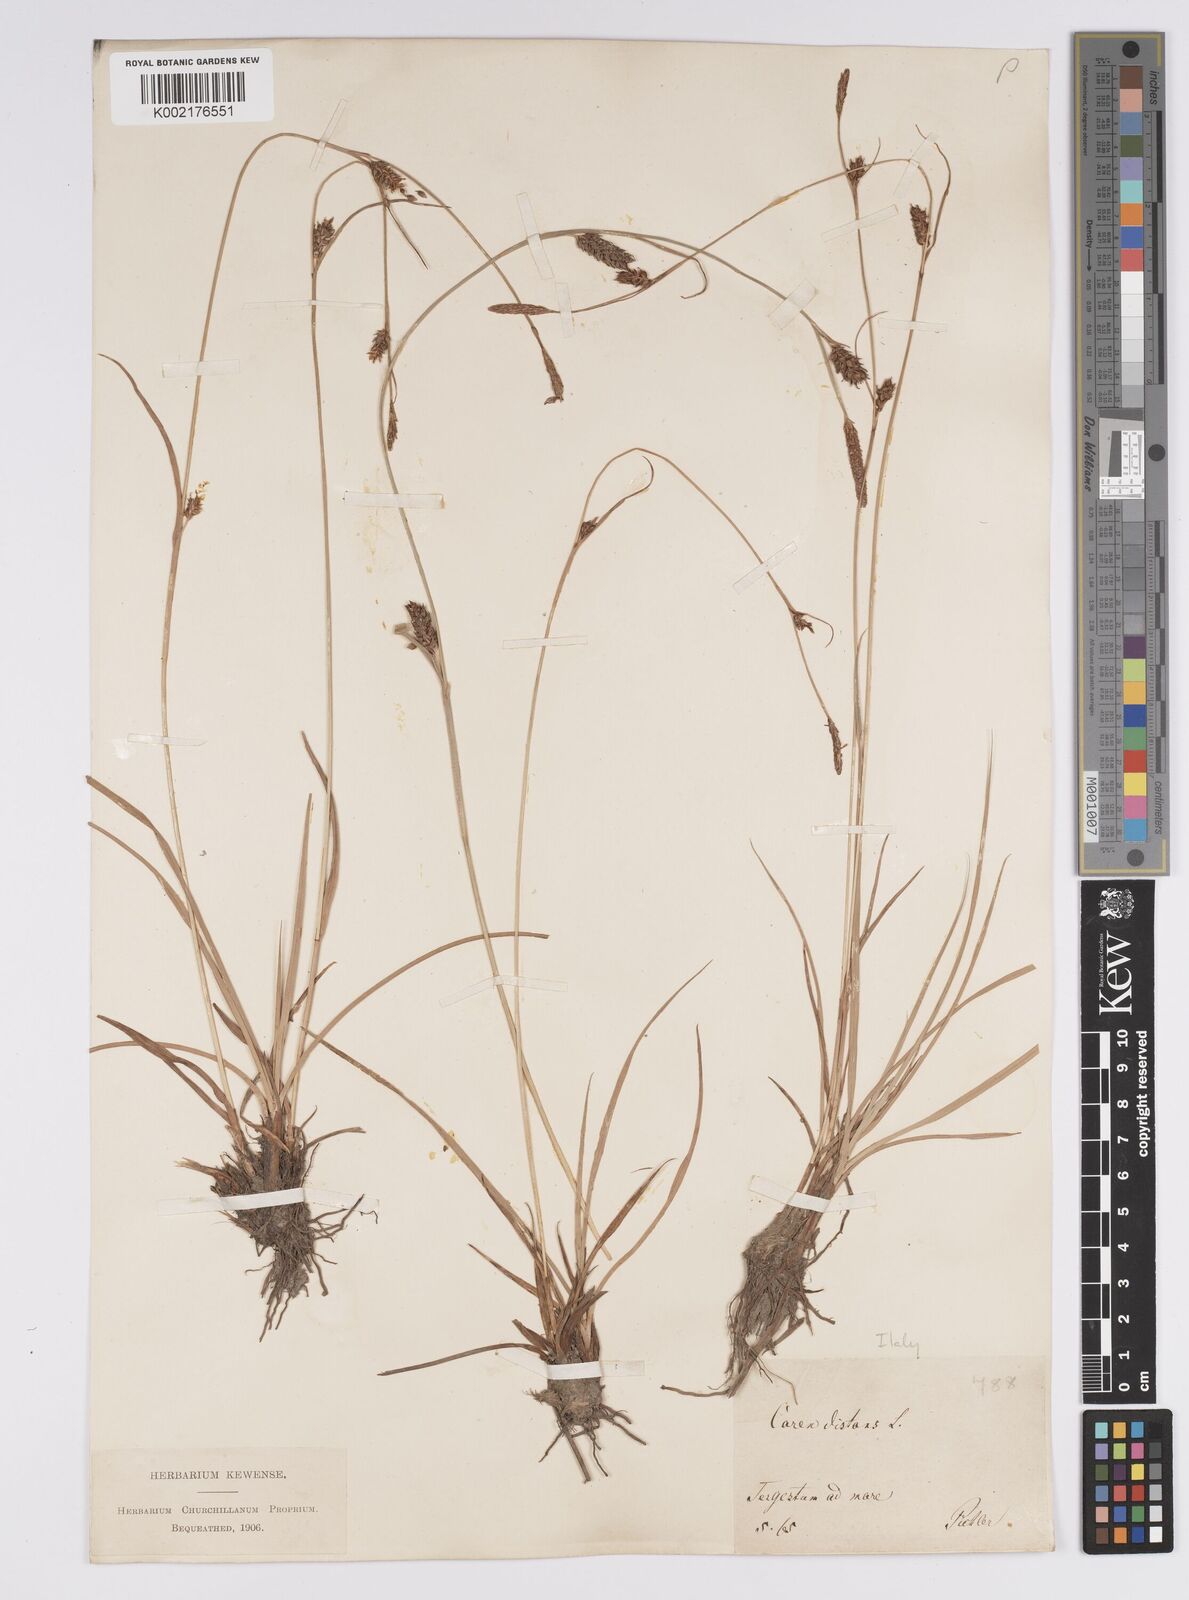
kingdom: Plantae
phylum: Tracheophyta
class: Liliopsida
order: Poales
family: Cyperaceae
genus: Carex
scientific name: Carex distans
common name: Distant sedge
